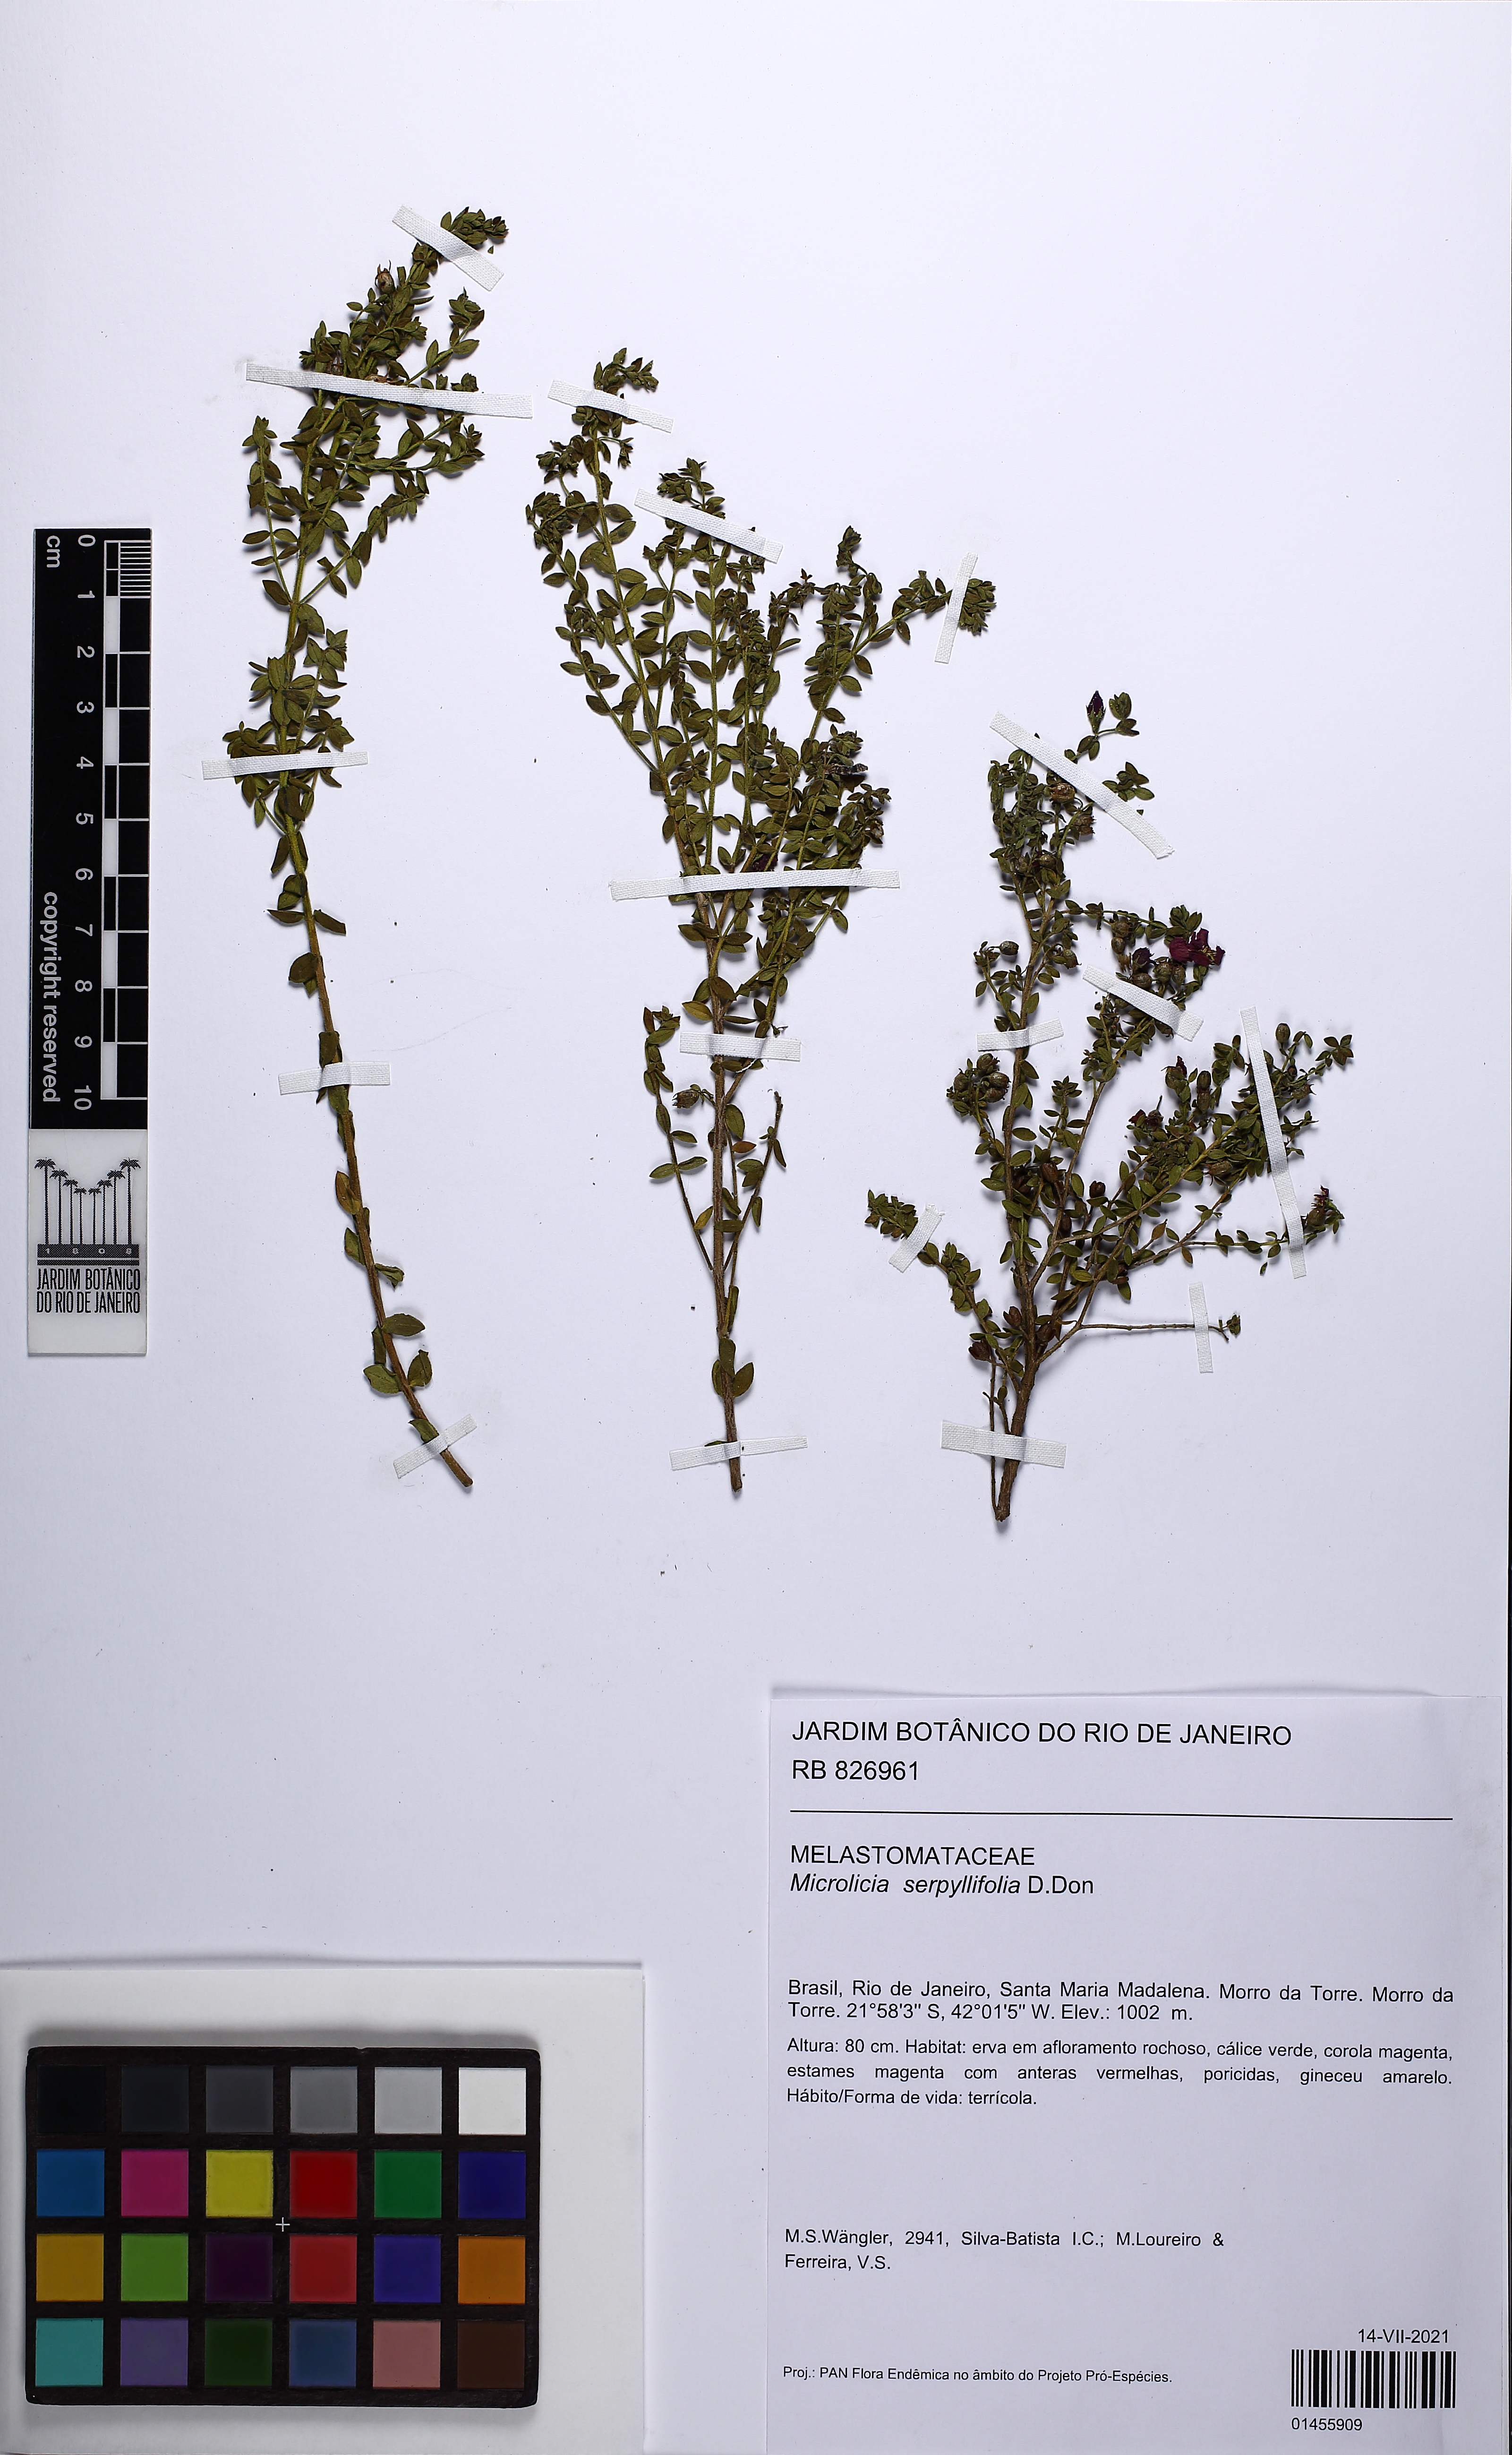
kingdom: Plantae
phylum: Tracheophyta
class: Magnoliopsida
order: Myrtales
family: Melastomataceae
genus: Microlicia
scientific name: Microlicia fulva
